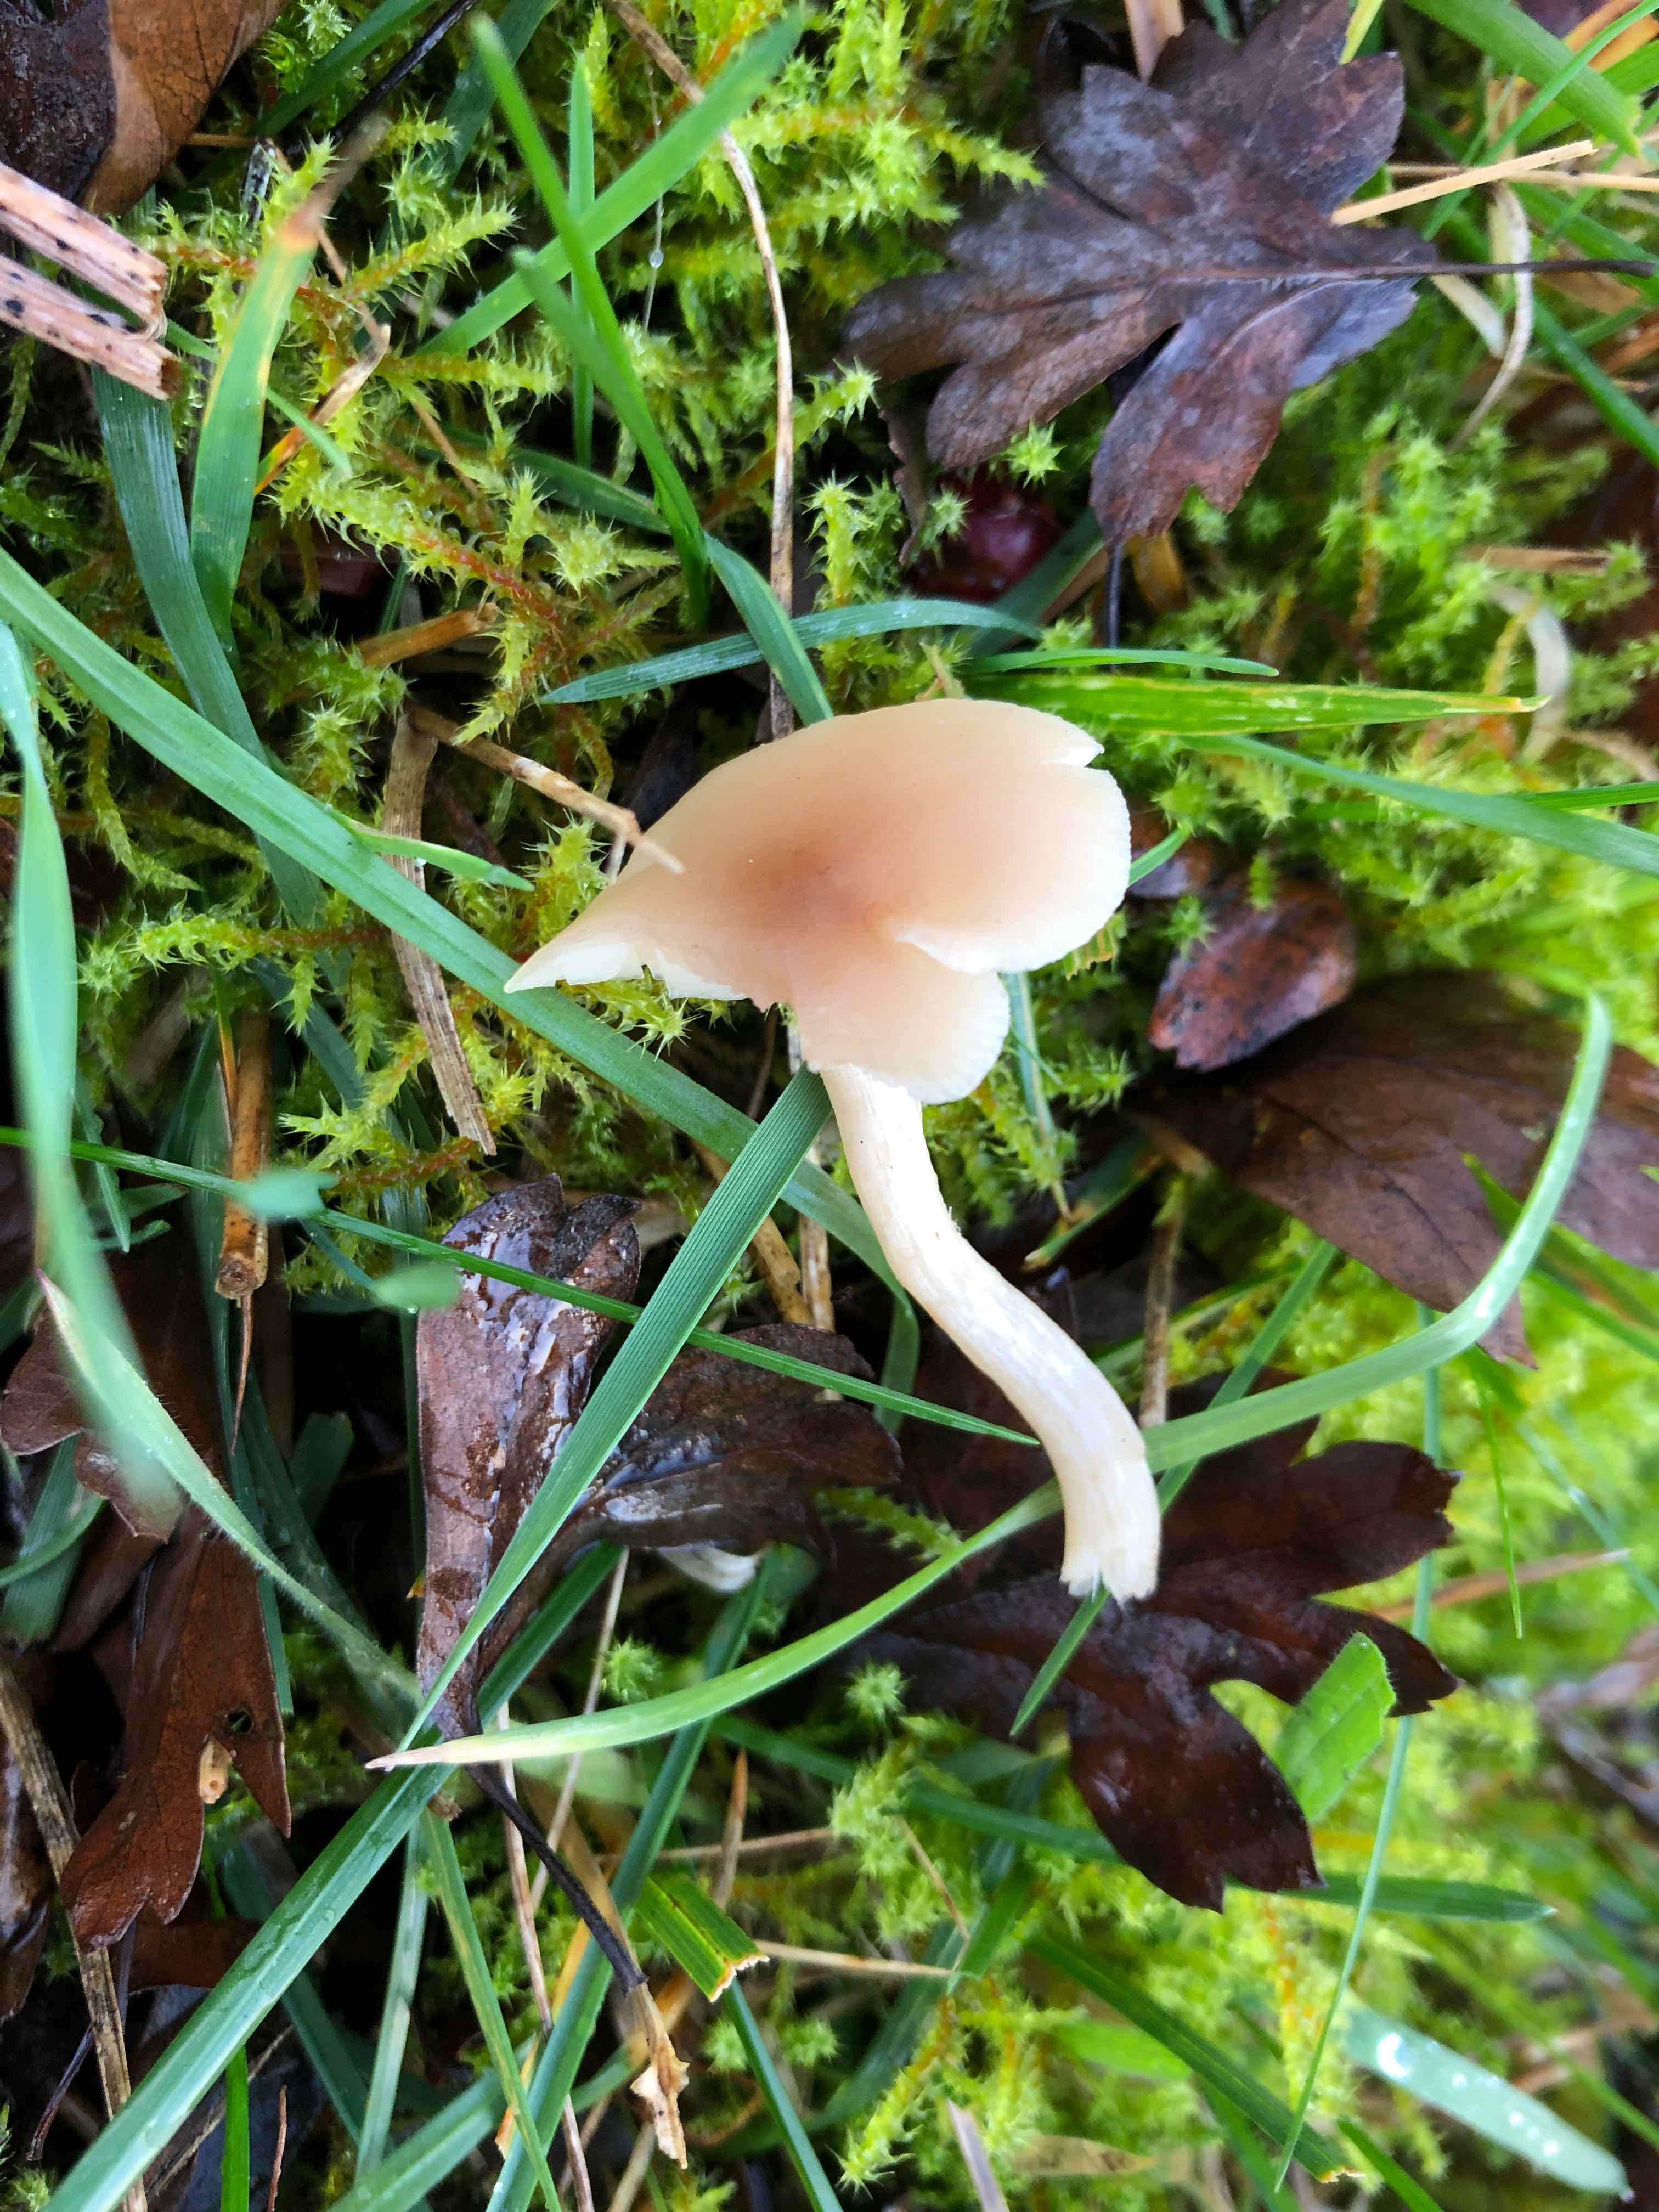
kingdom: Fungi
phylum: Basidiomycota
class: Agaricomycetes
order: Agaricales
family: Tricholomataceae
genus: Clitocybe
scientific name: Clitocybe fragrans
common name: vellugtende tragthat
